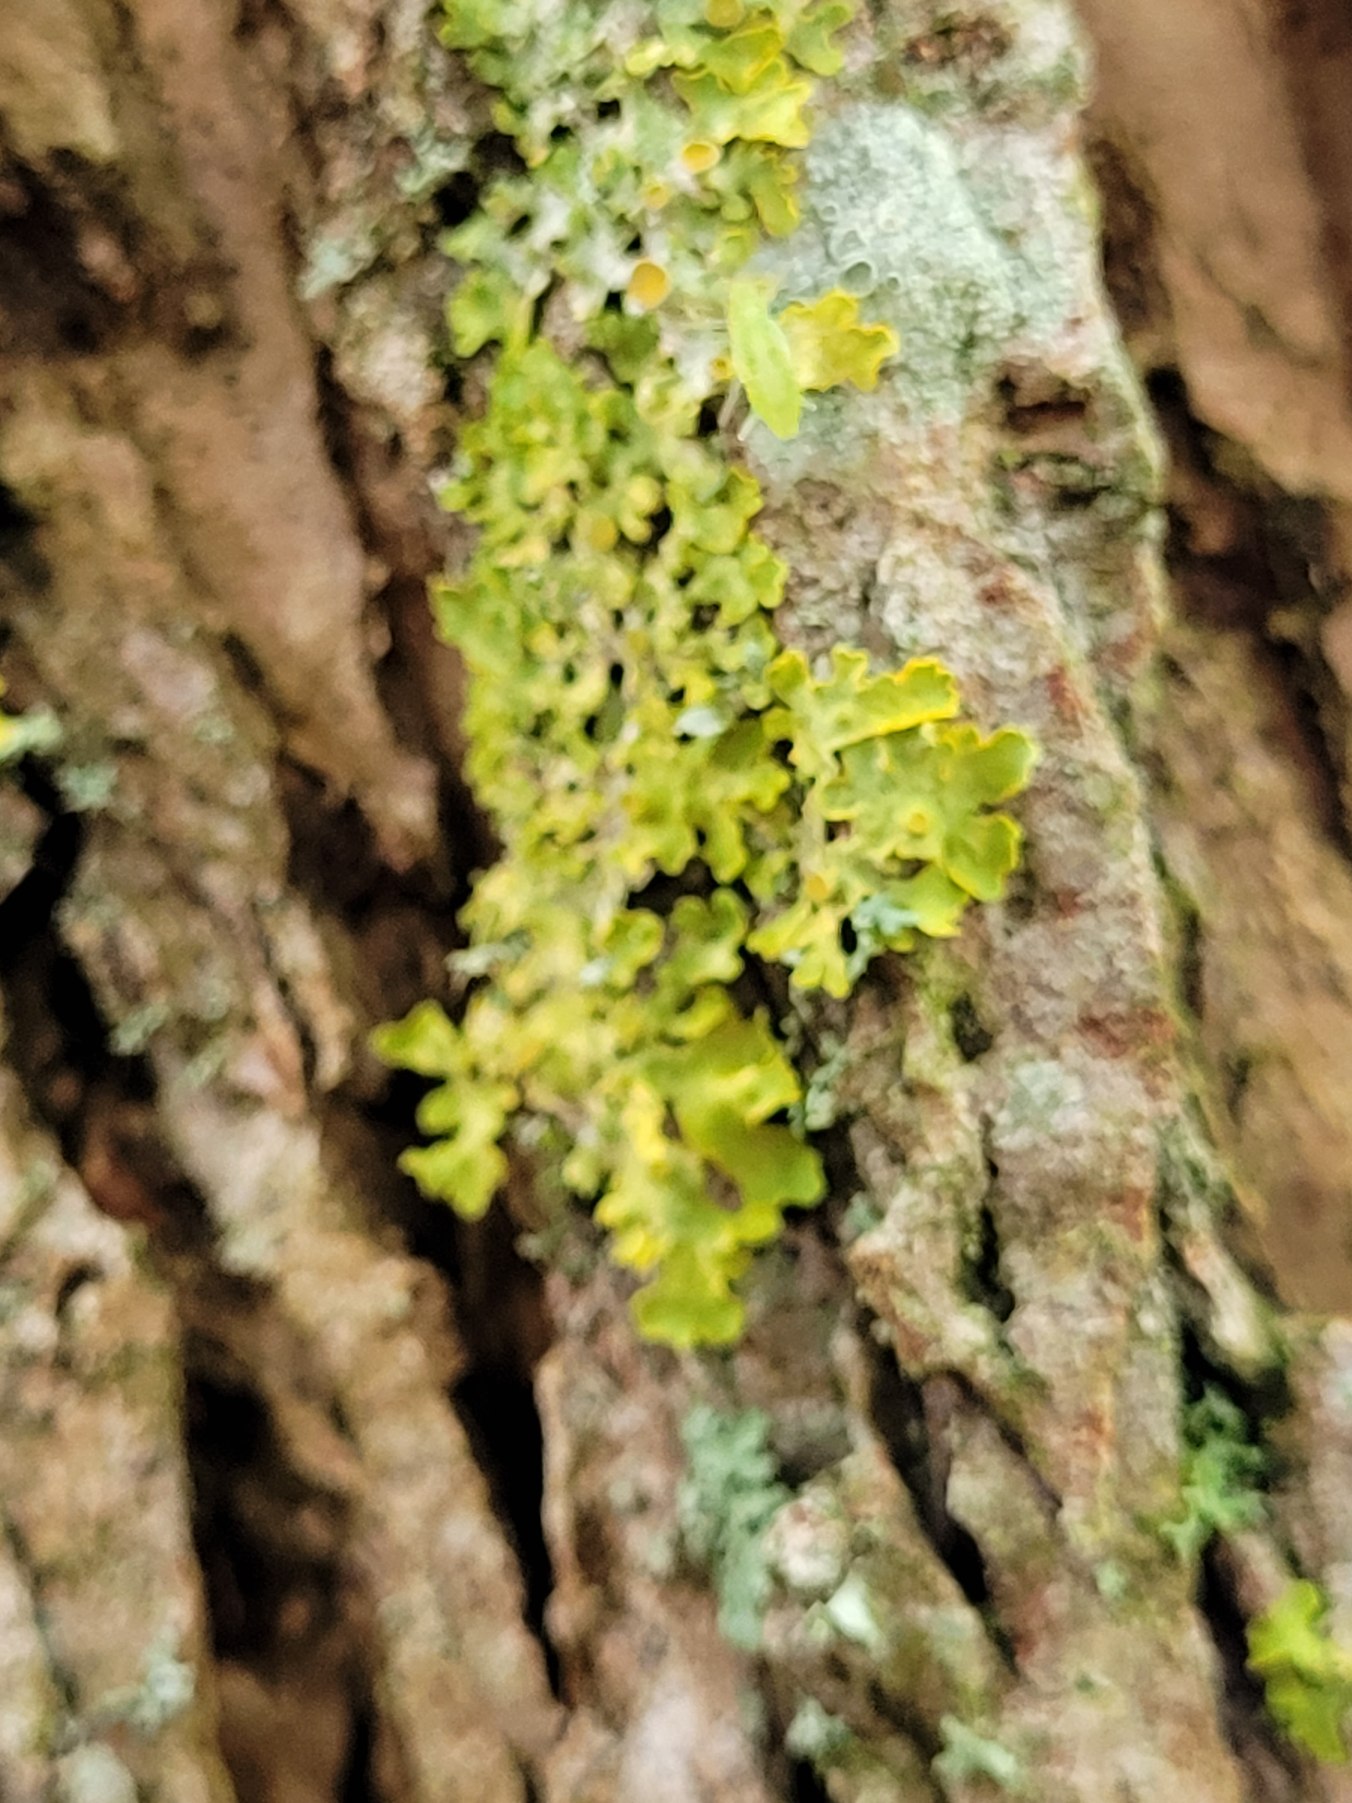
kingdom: Fungi
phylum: Ascomycota
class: Lecanoromycetes
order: Teloschistales
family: Teloschistaceae
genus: Xanthoria
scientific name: Xanthoria parietina
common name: Almindelig væggelav
